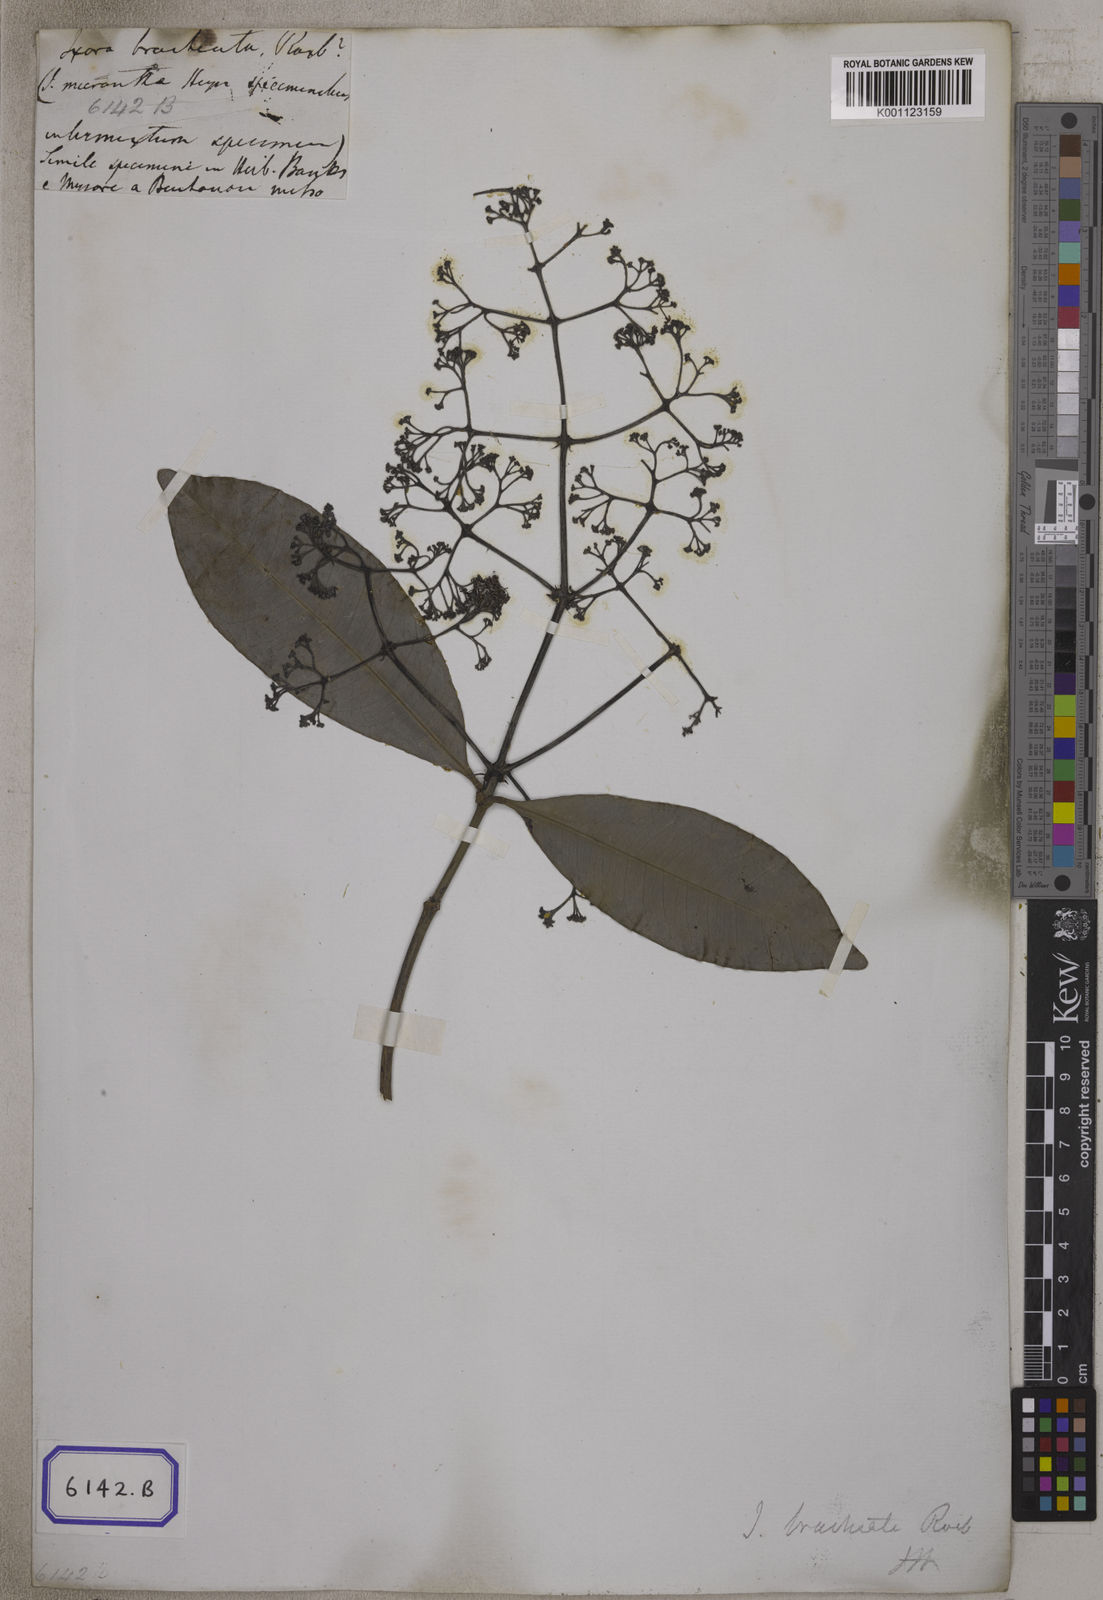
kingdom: Plantae
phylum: Tracheophyta
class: Magnoliopsida
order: Gentianales
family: Rubiaceae
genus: Ixora
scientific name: Ixora brachiata
